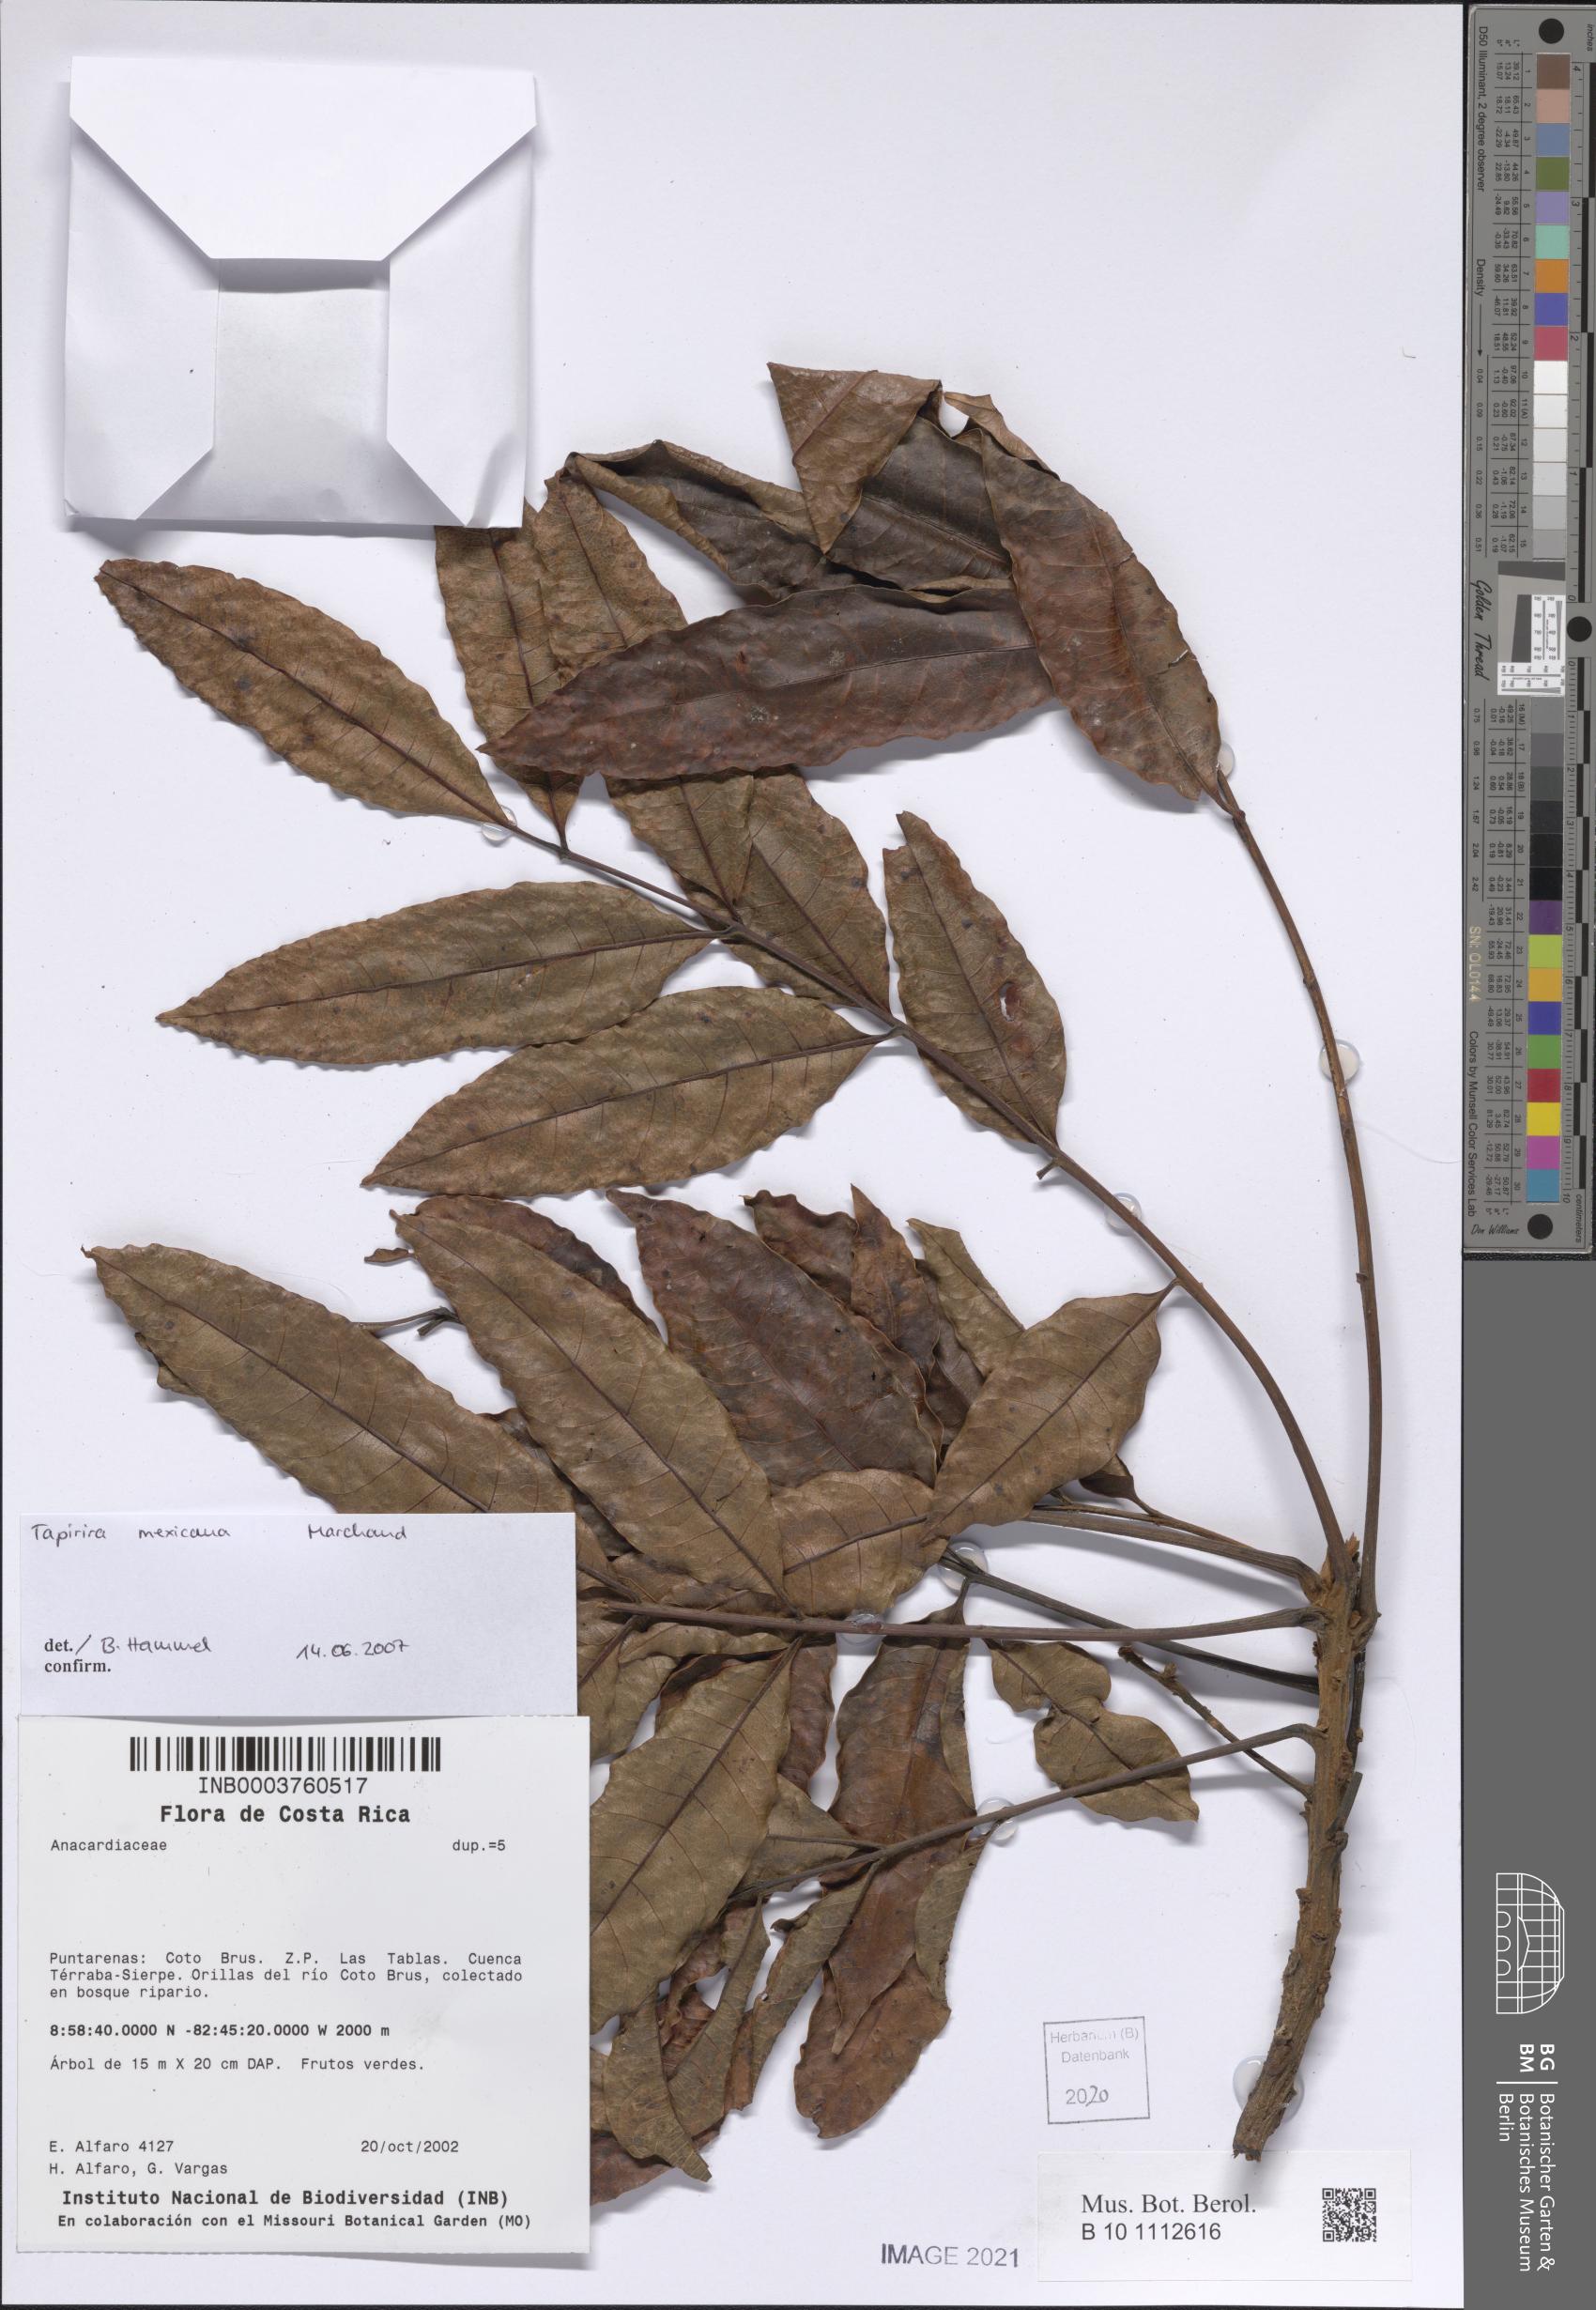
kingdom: Plantae
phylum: Tracheophyta
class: Magnoliopsida
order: Sapindales
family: Anacardiaceae
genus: Tapirira
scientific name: Tapirira mexicana
